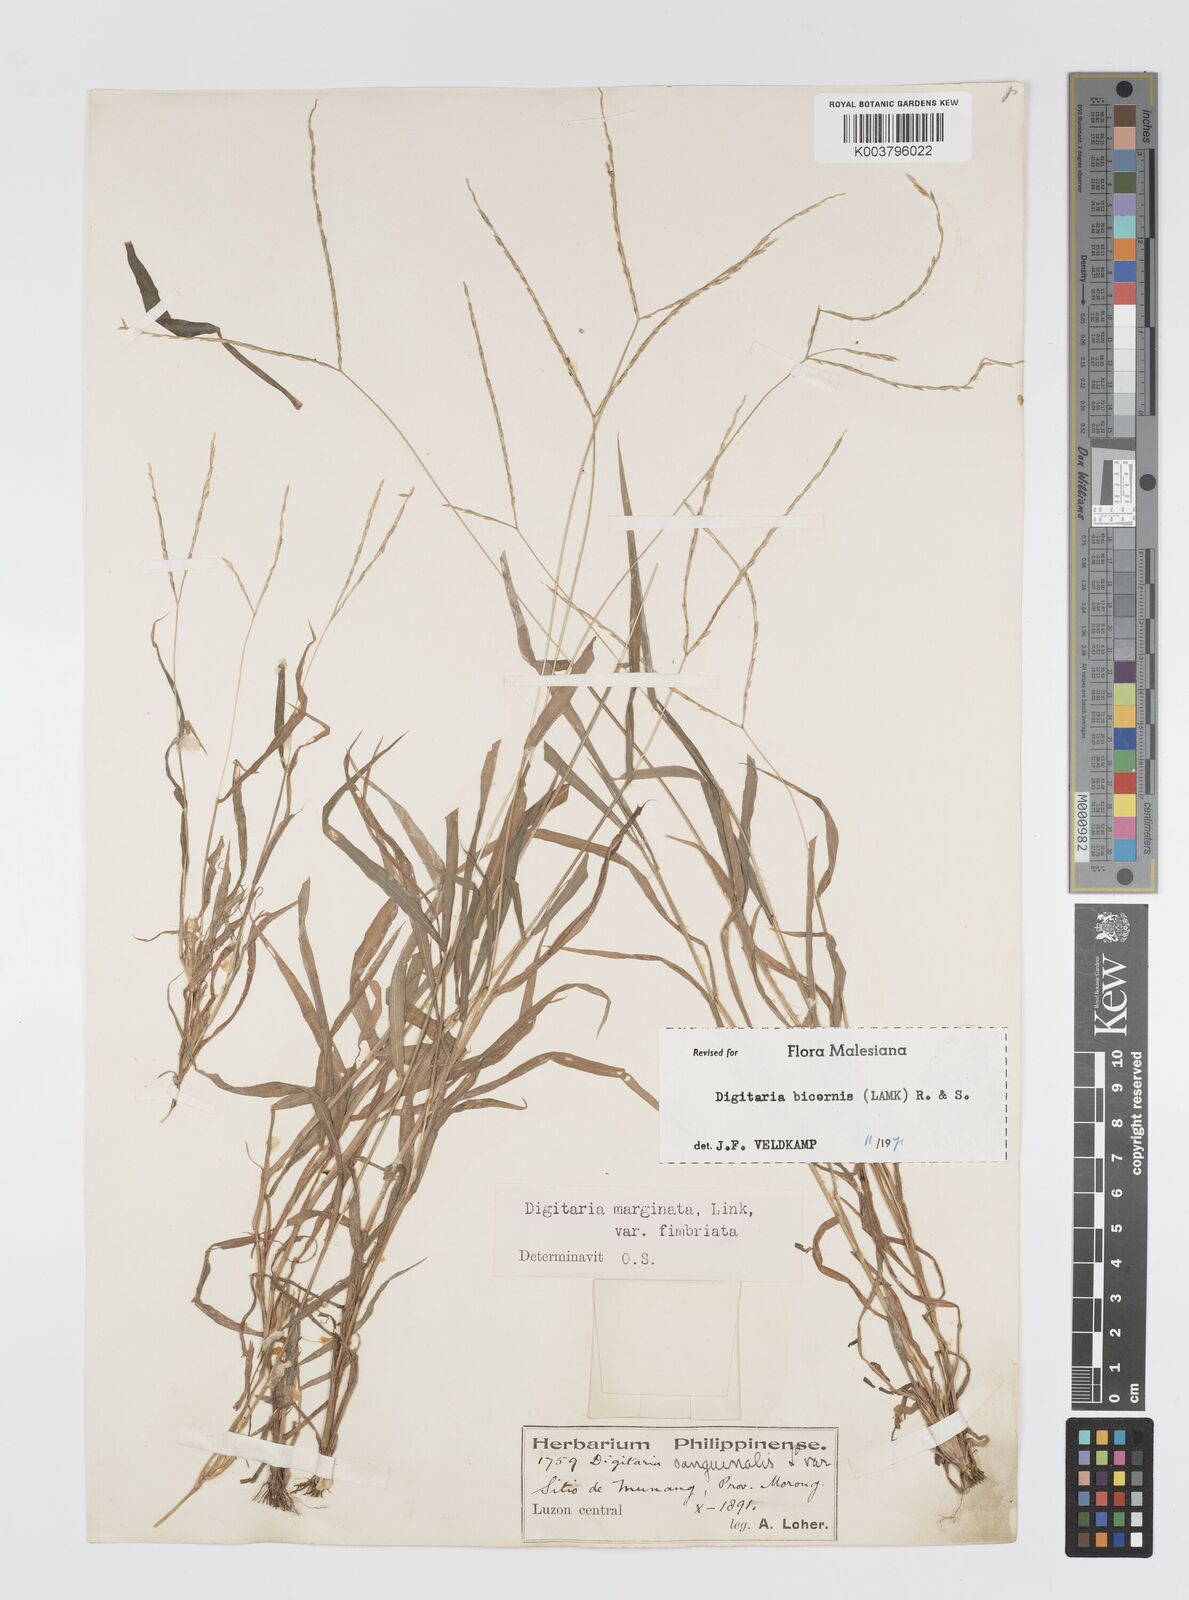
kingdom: Plantae
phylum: Tracheophyta
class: Liliopsida
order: Poales
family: Poaceae
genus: Digitaria
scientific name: Digitaria ciliaris
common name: Tropical finger-grass
